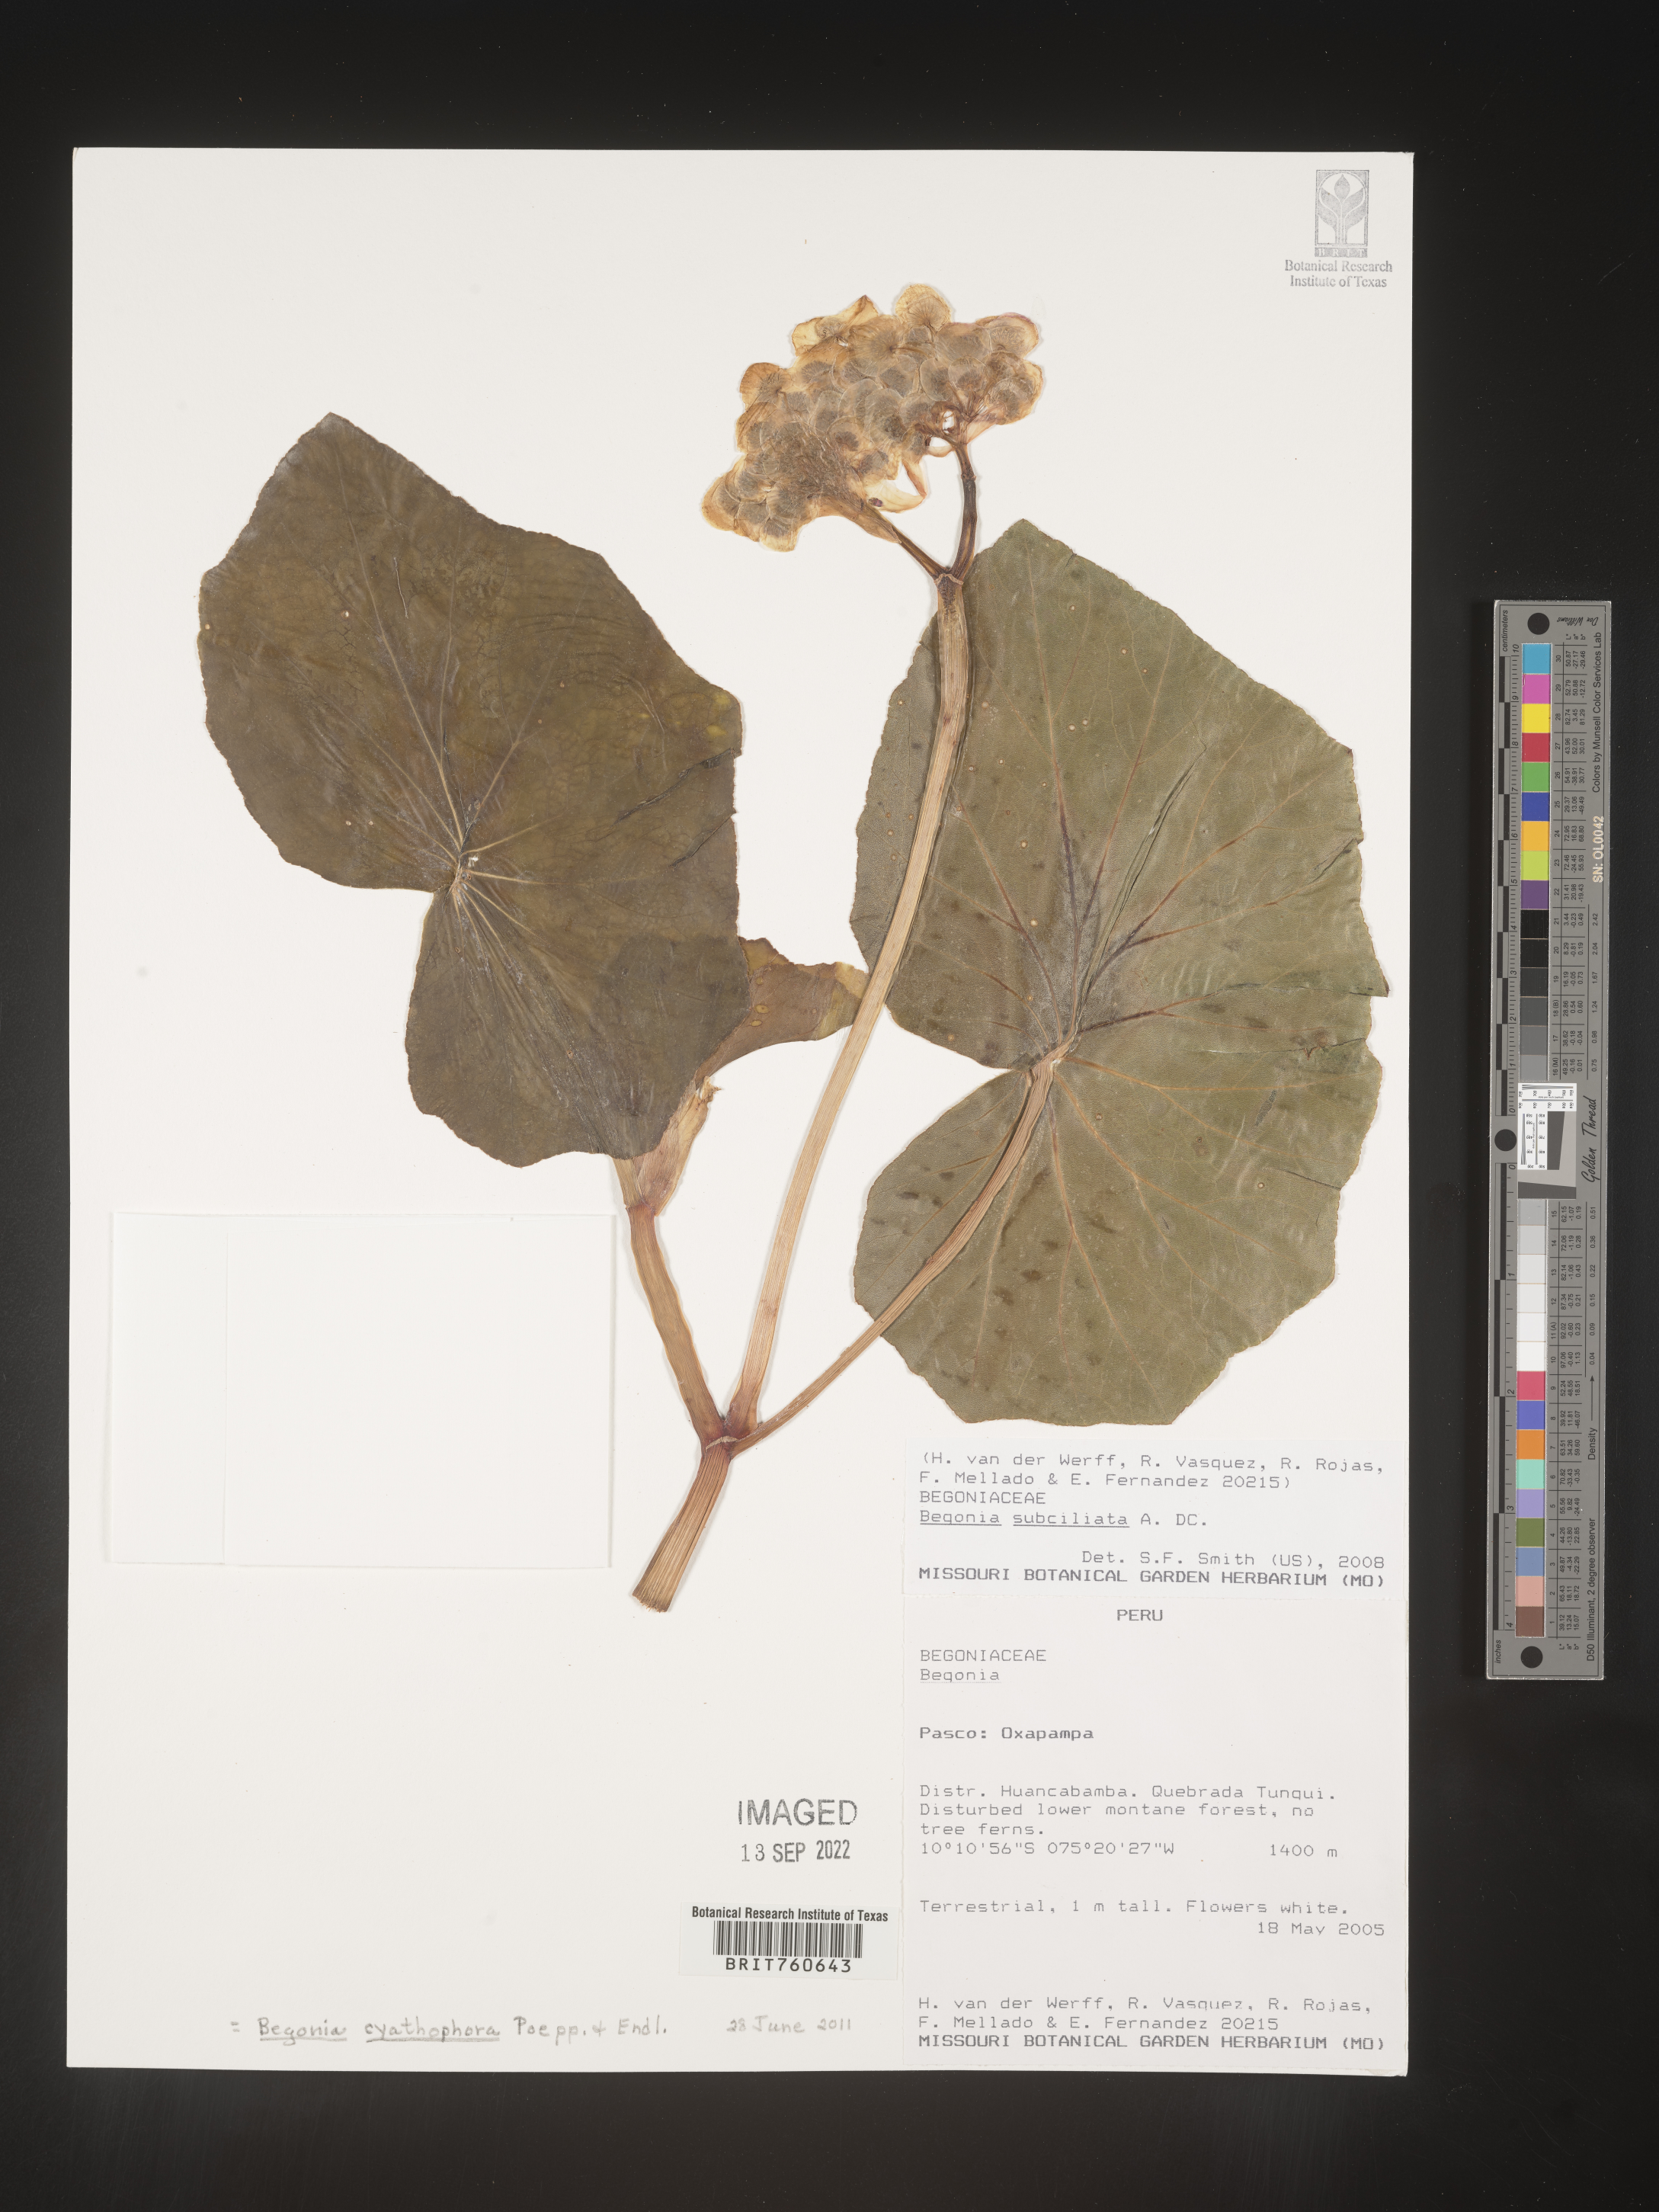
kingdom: Plantae
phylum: Tracheophyta
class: Magnoliopsida
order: Cucurbitales
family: Begoniaceae
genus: Begonia
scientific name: Begonia
